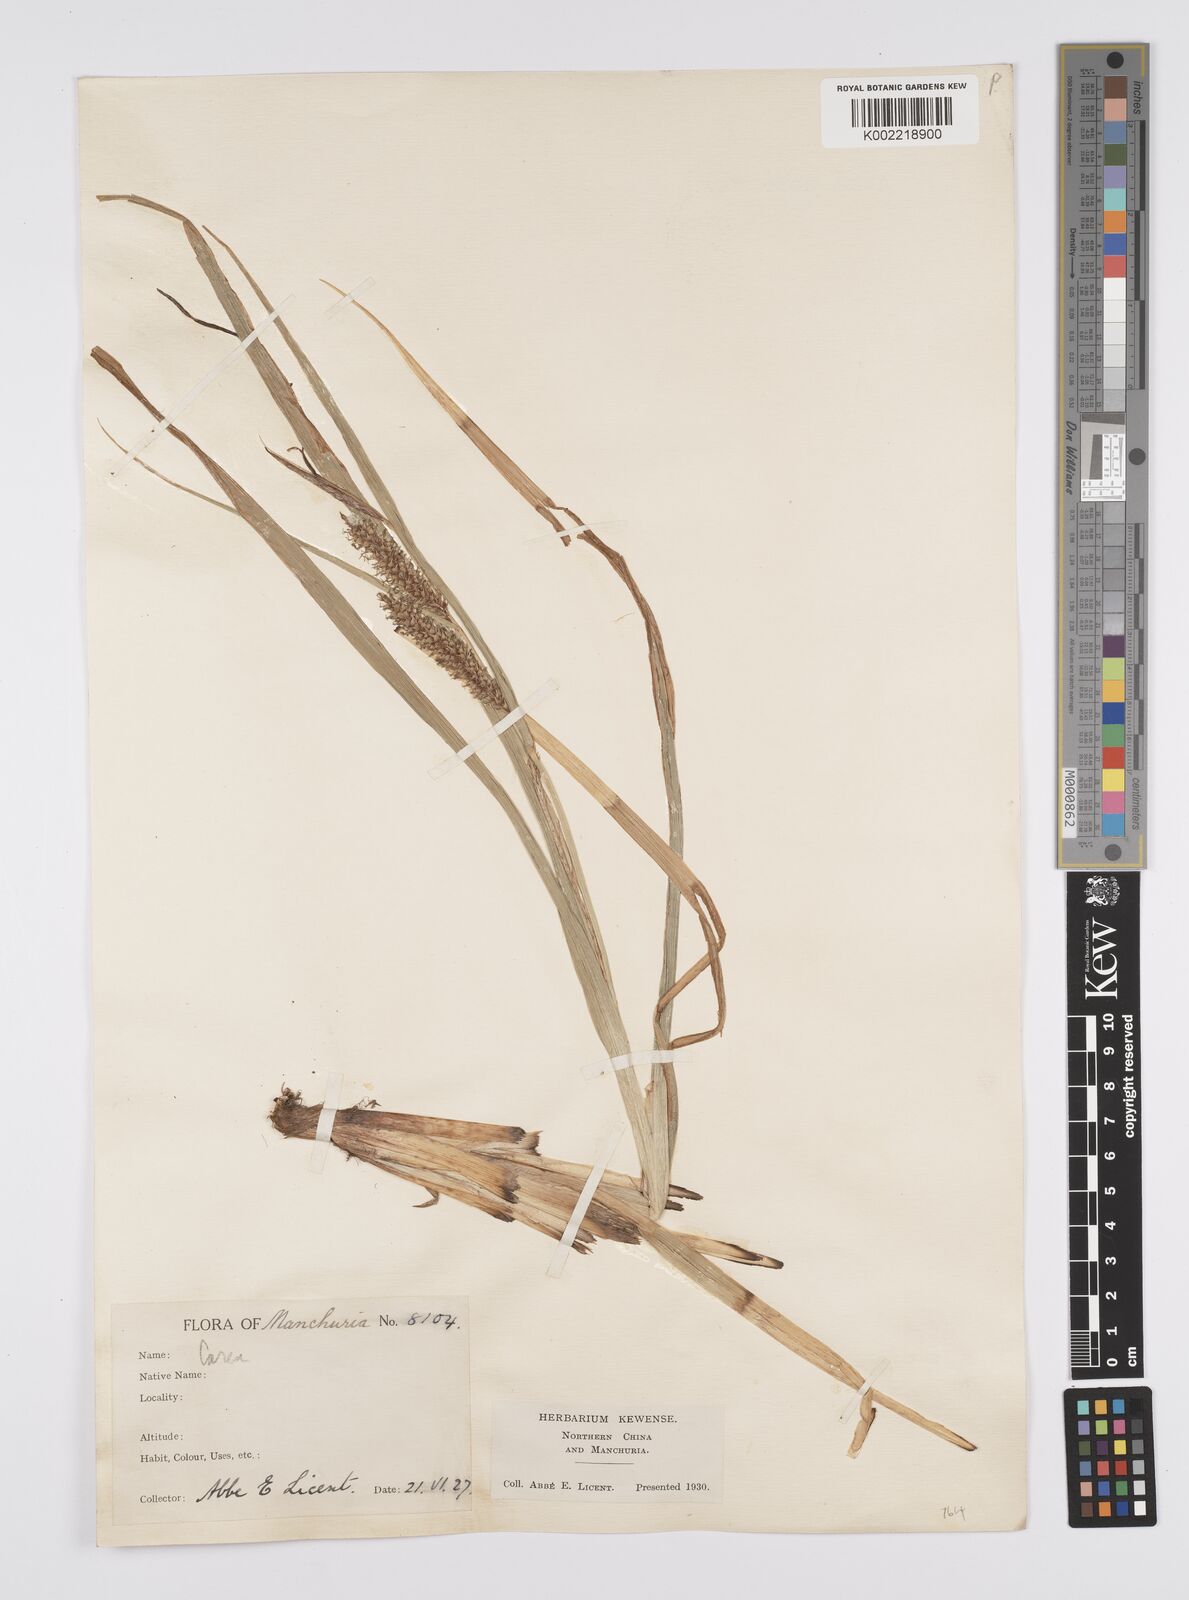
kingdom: Plantae
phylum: Tracheophyta
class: Liliopsida
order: Poales
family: Cyperaceae
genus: Carex
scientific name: Carex utriculata
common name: Beaked sedge
